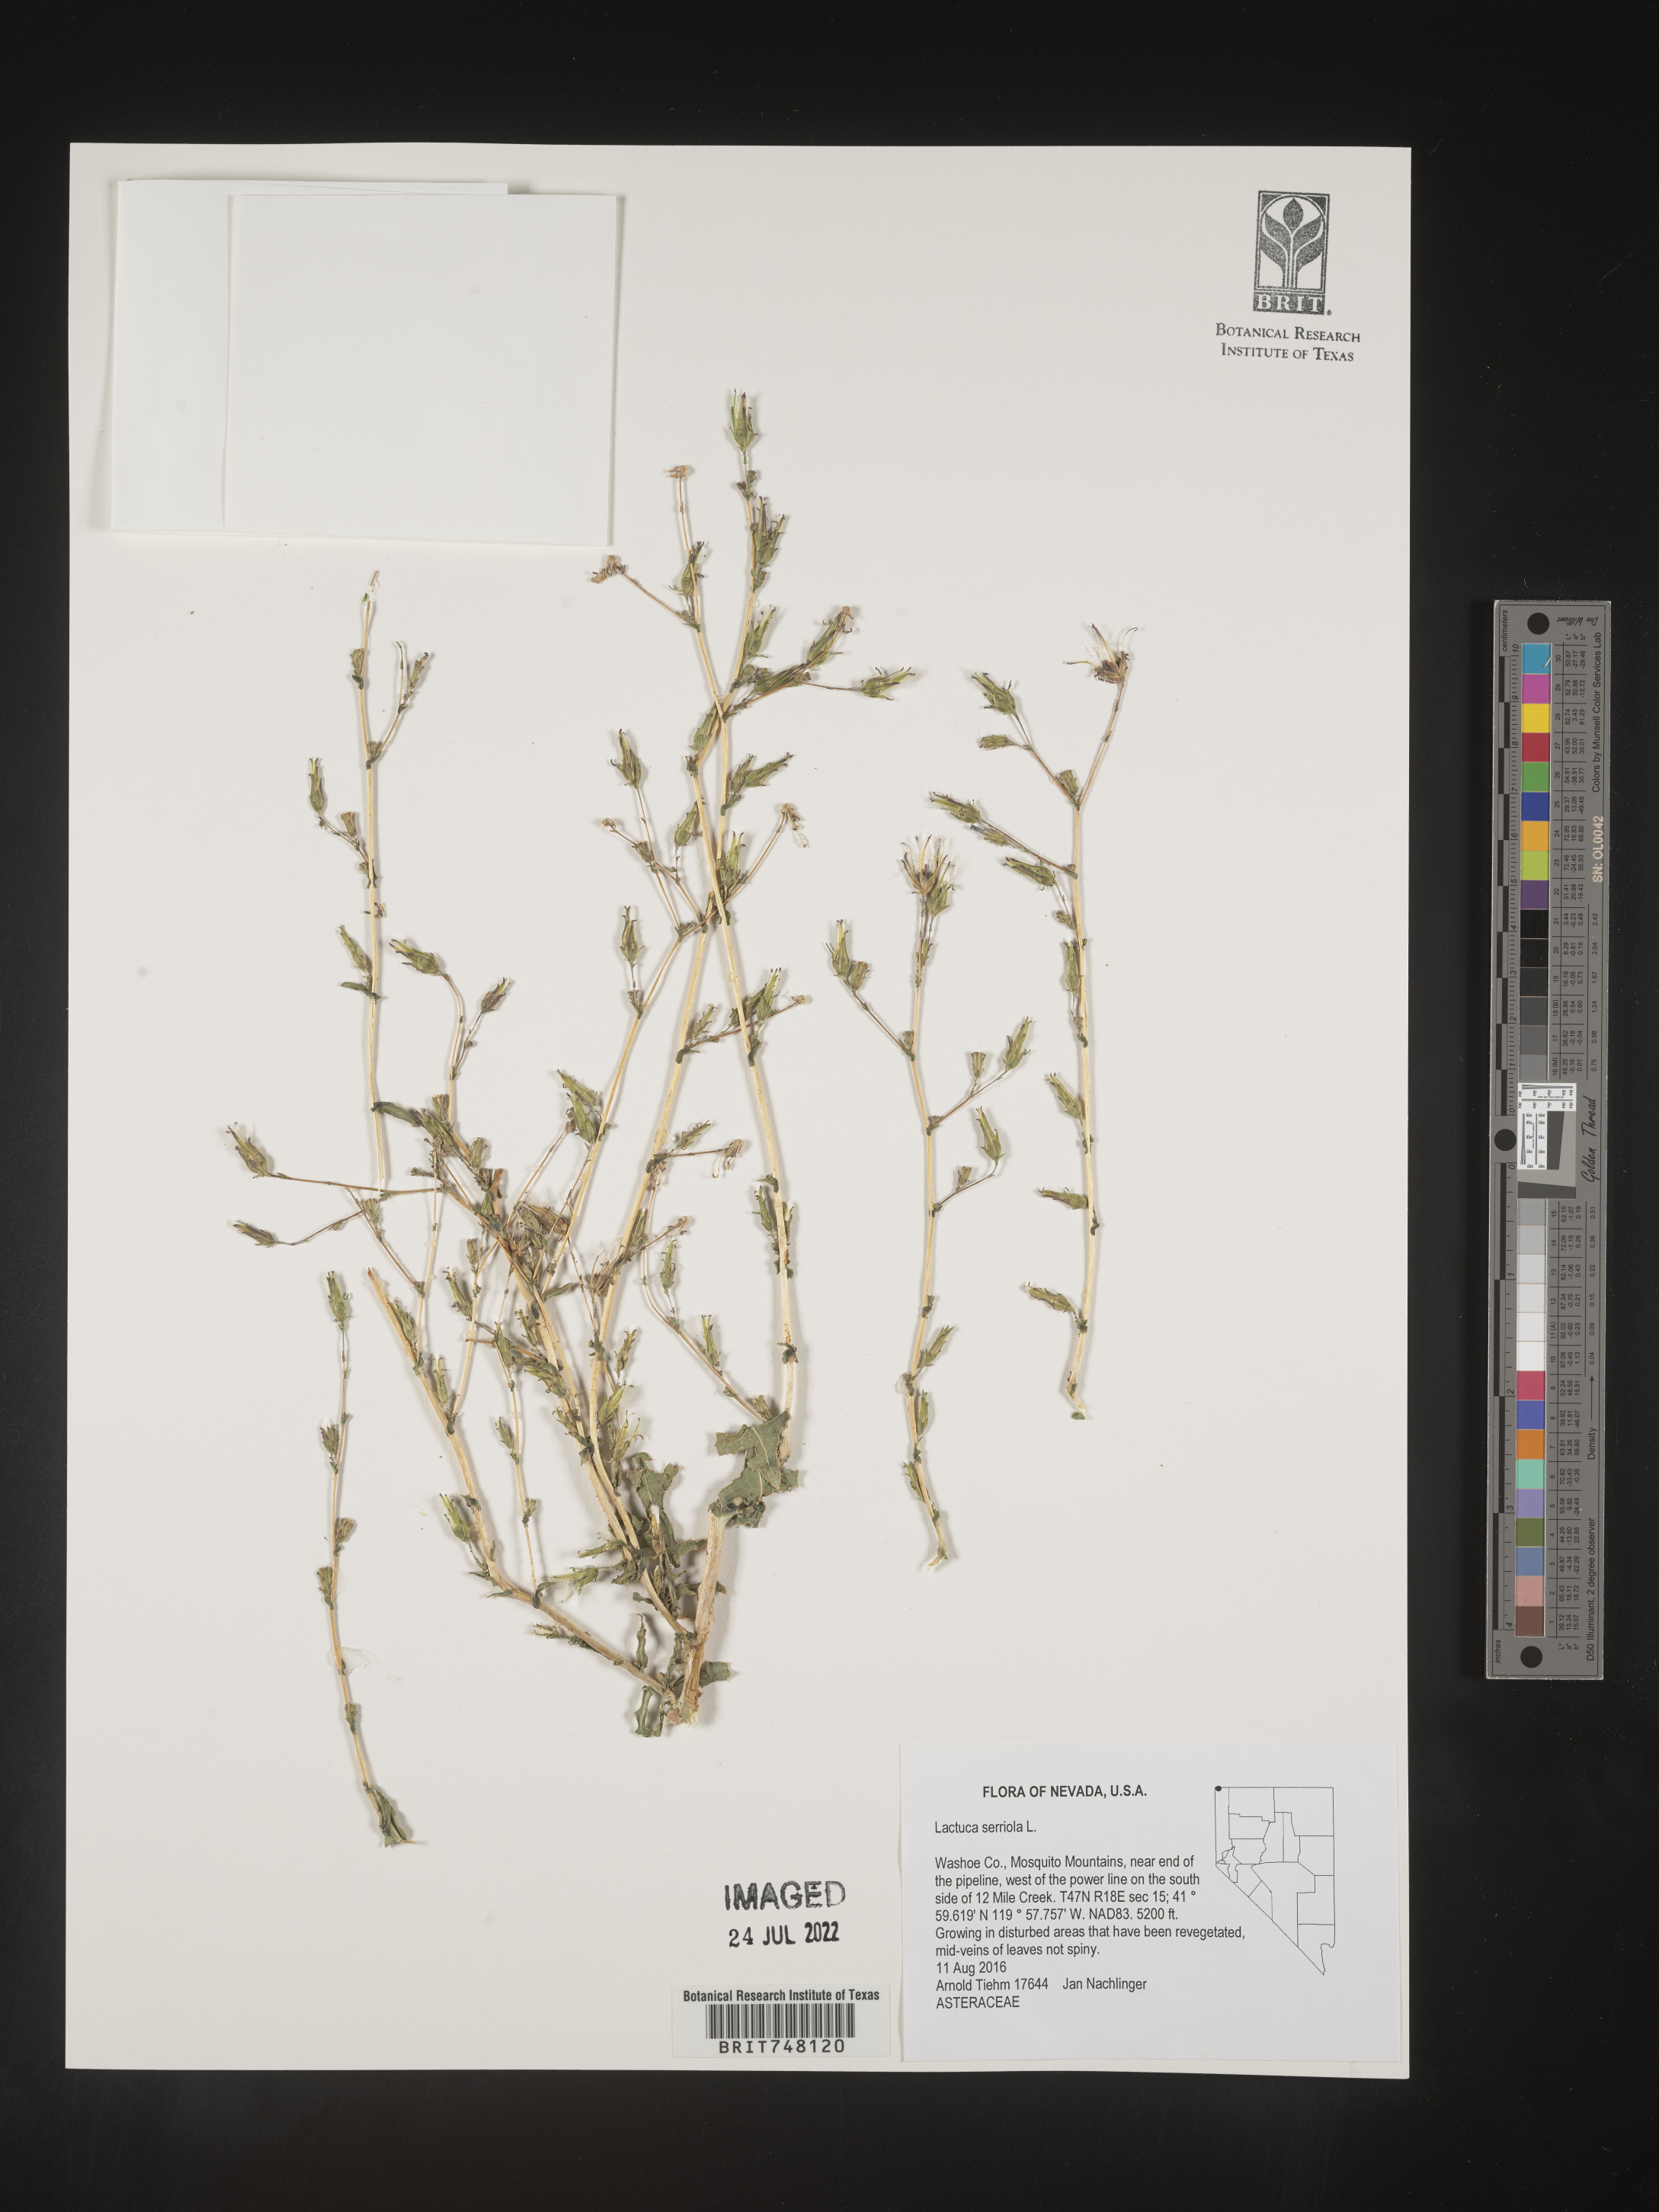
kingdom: Plantae
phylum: Tracheophyta
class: Magnoliopsida
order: Asterales
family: Asteraceae
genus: Lactuca
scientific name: Lactuca serriola
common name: Prickly lettuce
